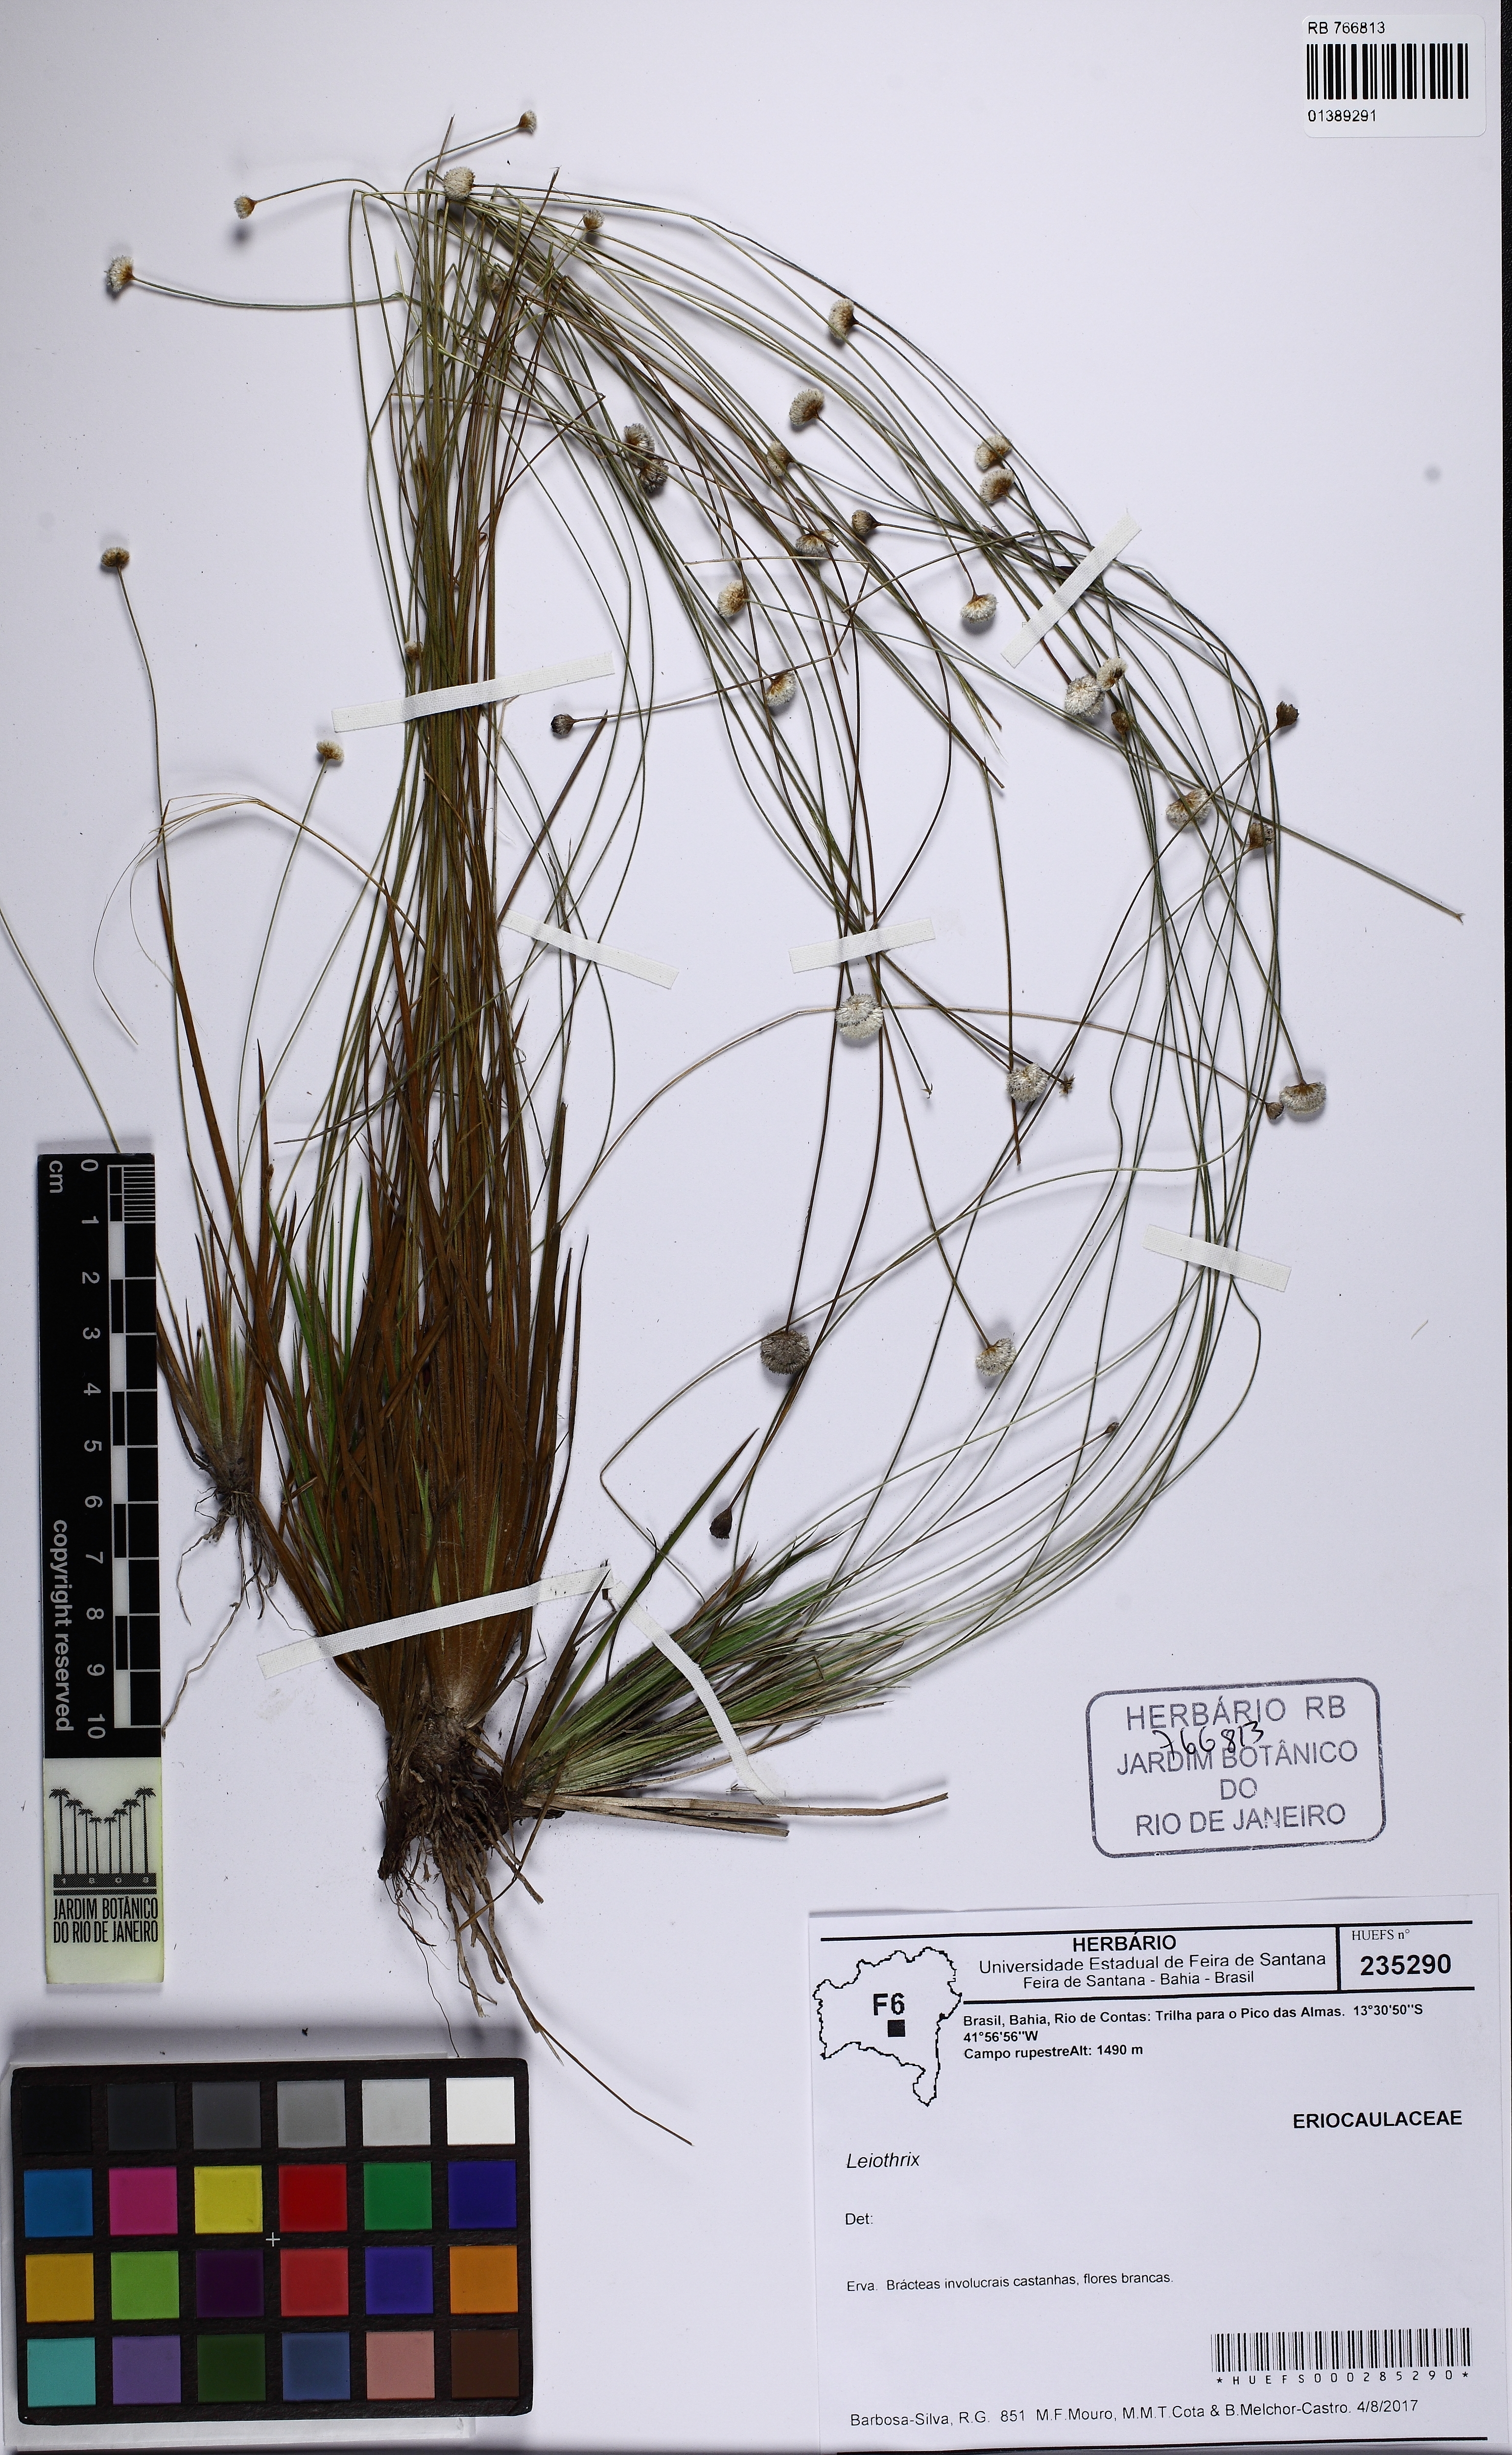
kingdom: Plantae
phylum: Tracheophyta
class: Liliopsida
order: Poales
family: Eriocaulaceae
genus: Leiothrix
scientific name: Leiothrix
